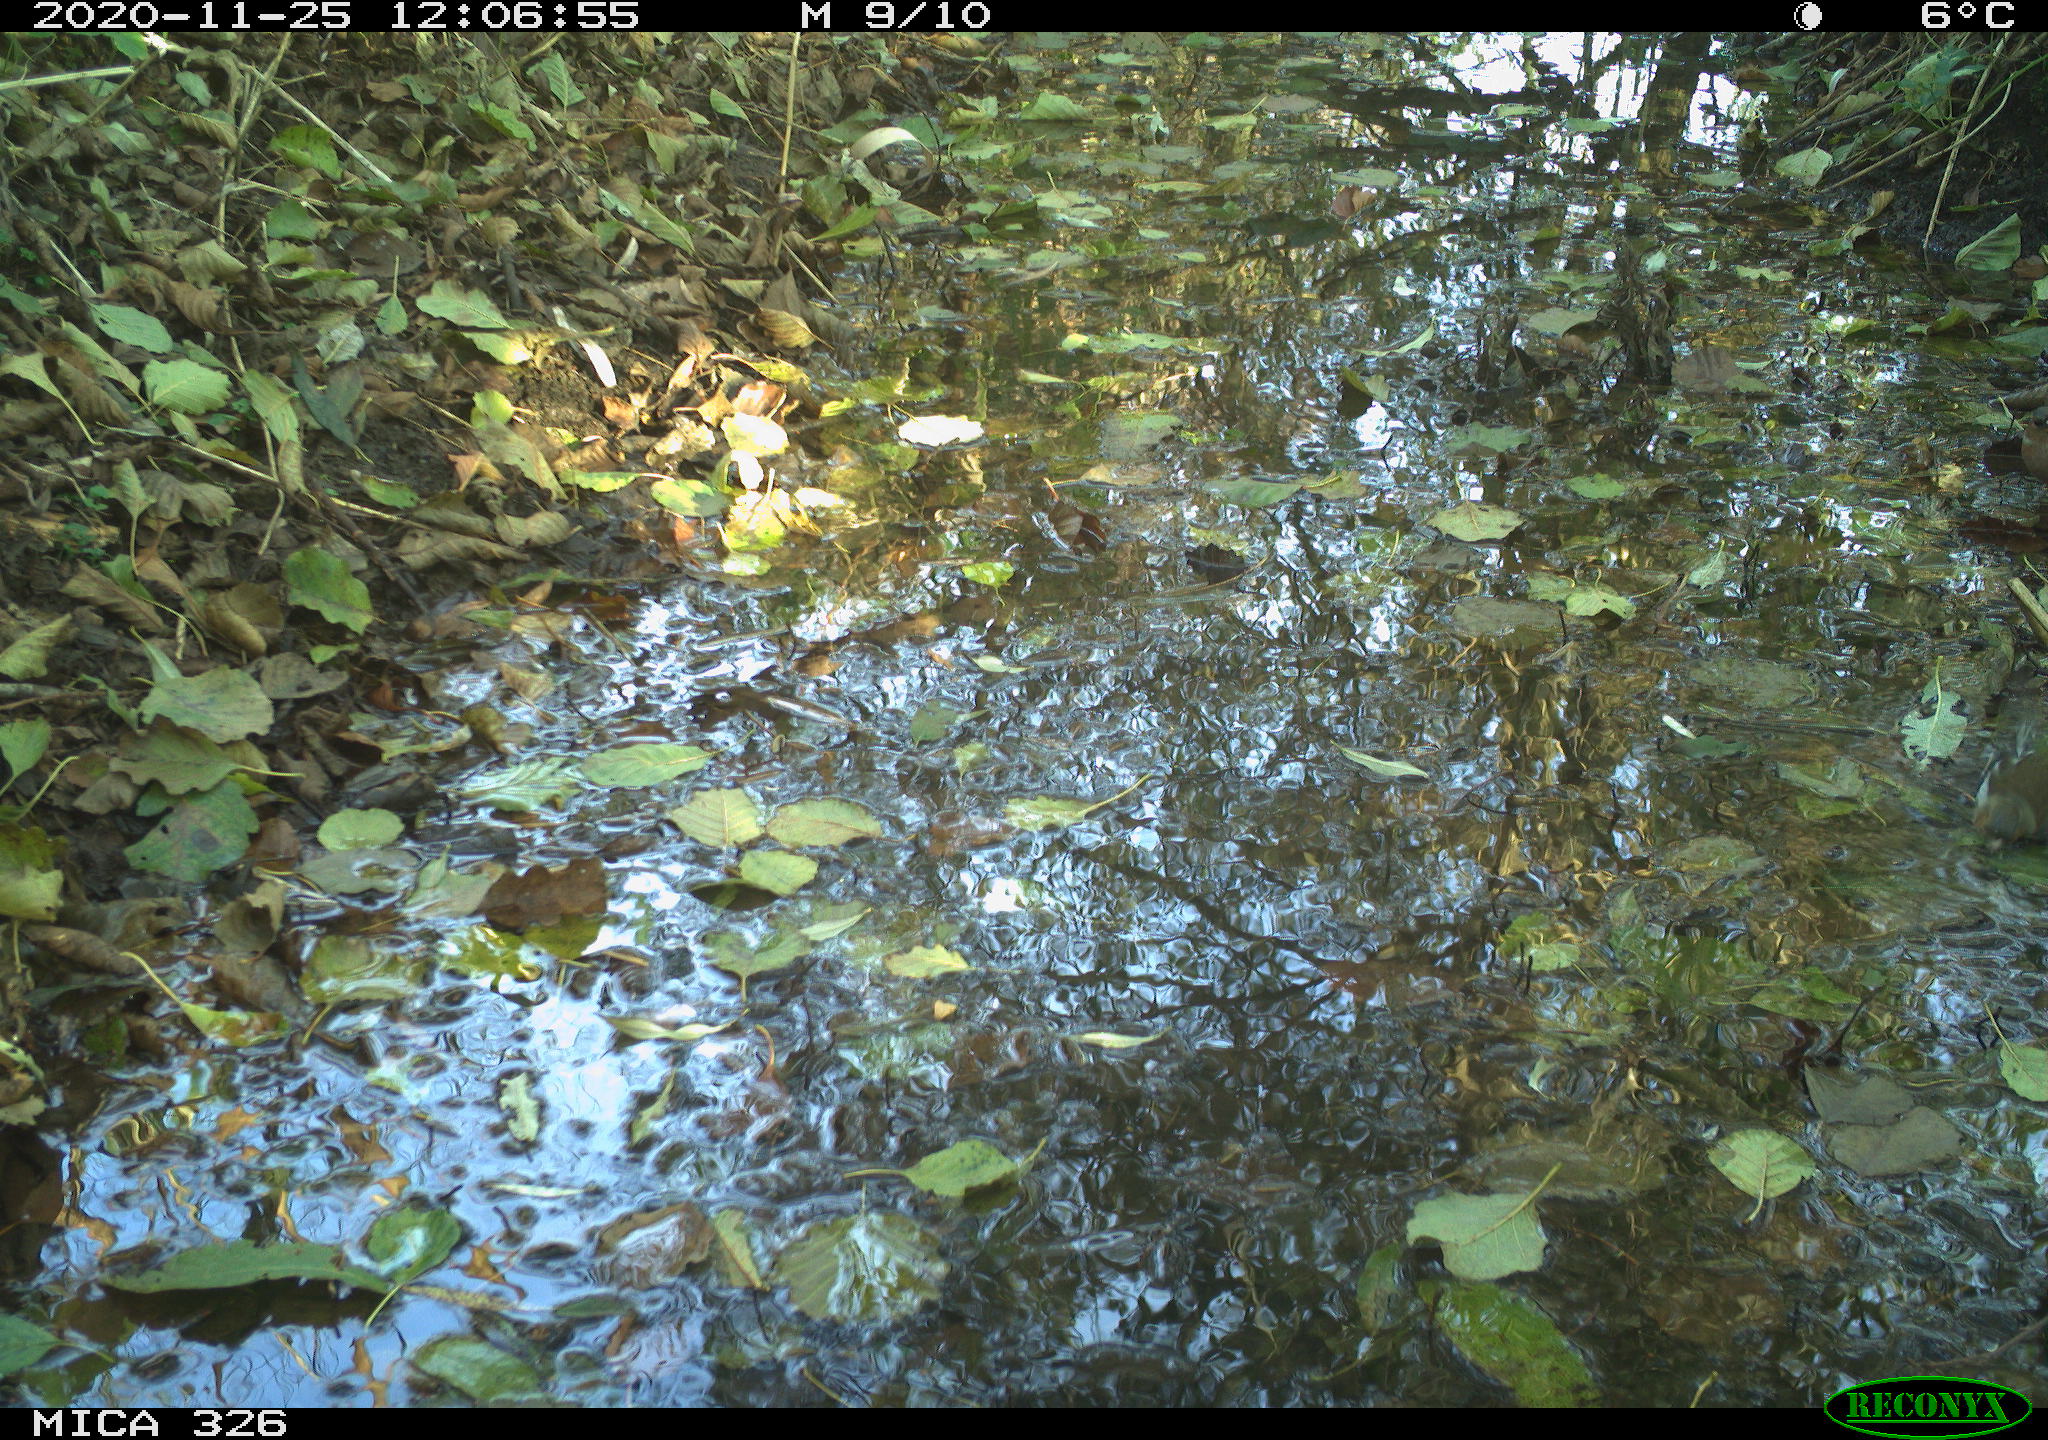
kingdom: Animalia
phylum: Chordata
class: Aves
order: Passeriformes
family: Fringillidae
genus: Fringilla
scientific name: Fringilla coelebs
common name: Common chaffinch
